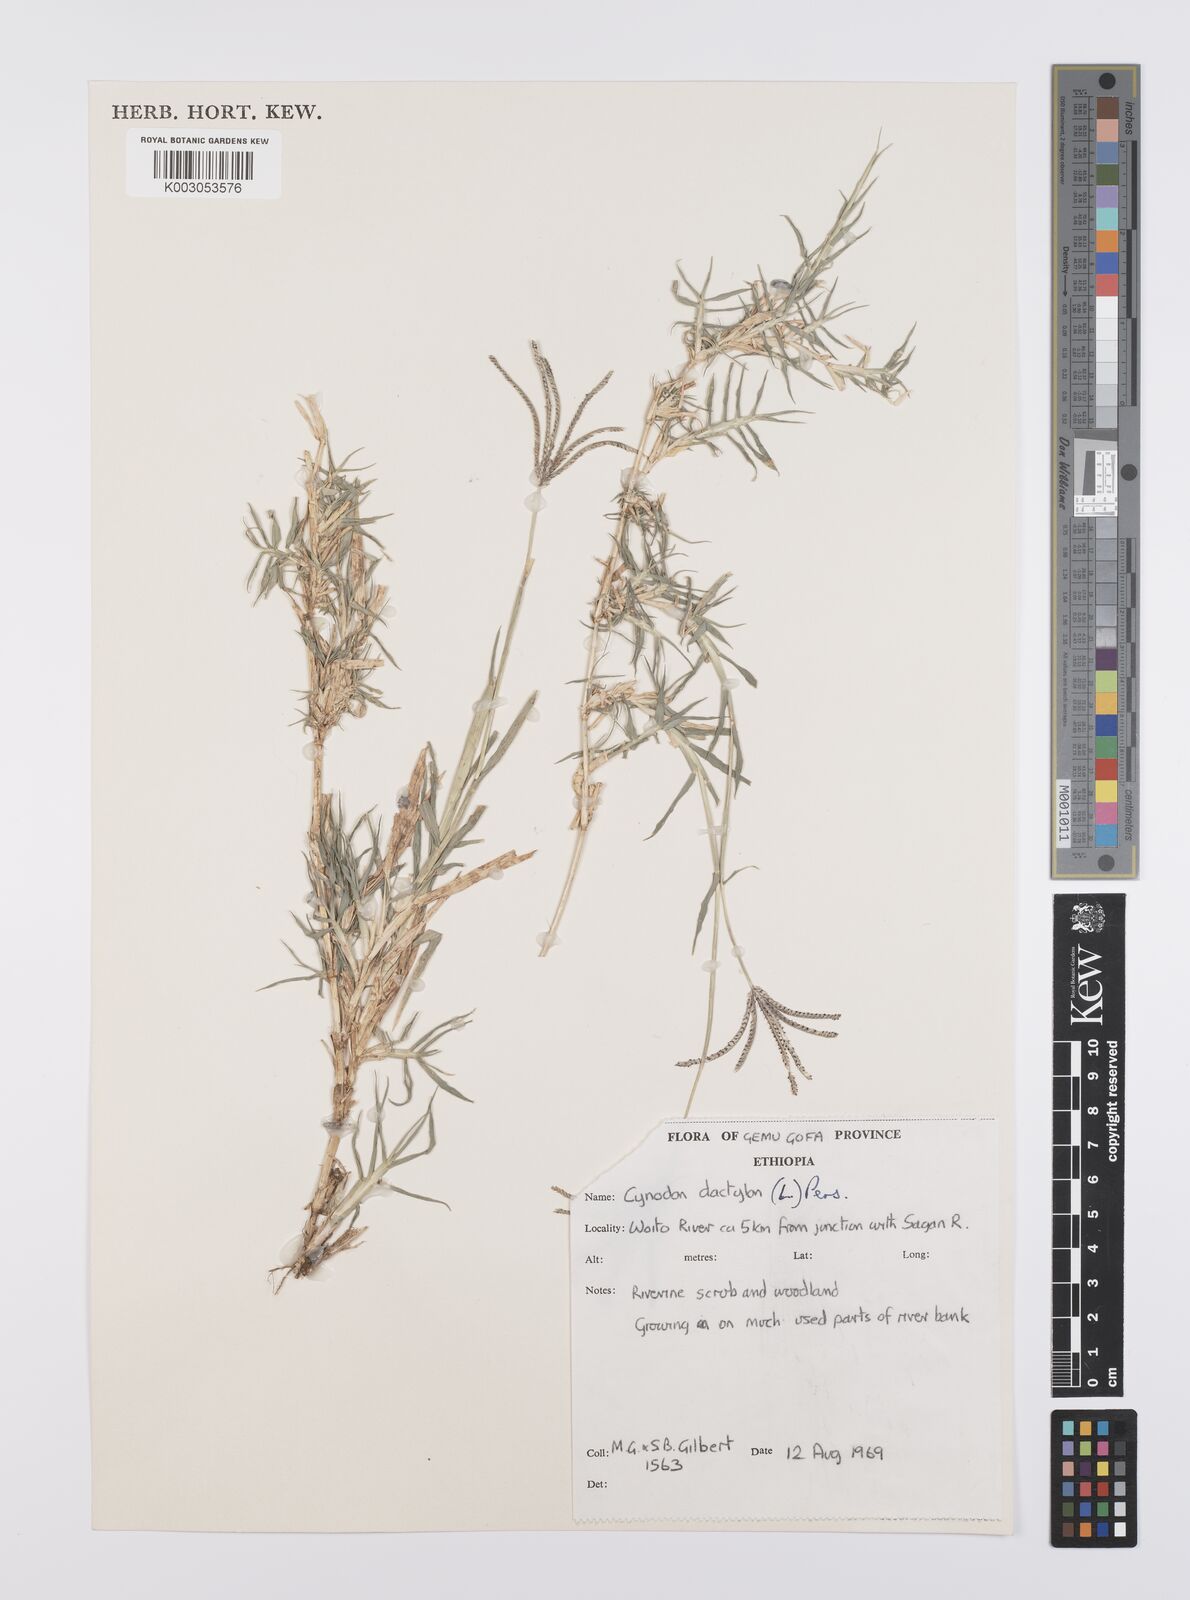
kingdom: Plantae
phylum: Tracheophyta
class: Liliopsida
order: Poales
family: Poaceae
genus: Cynodon
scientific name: Cynodon dactylon
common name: Bermuda grass
